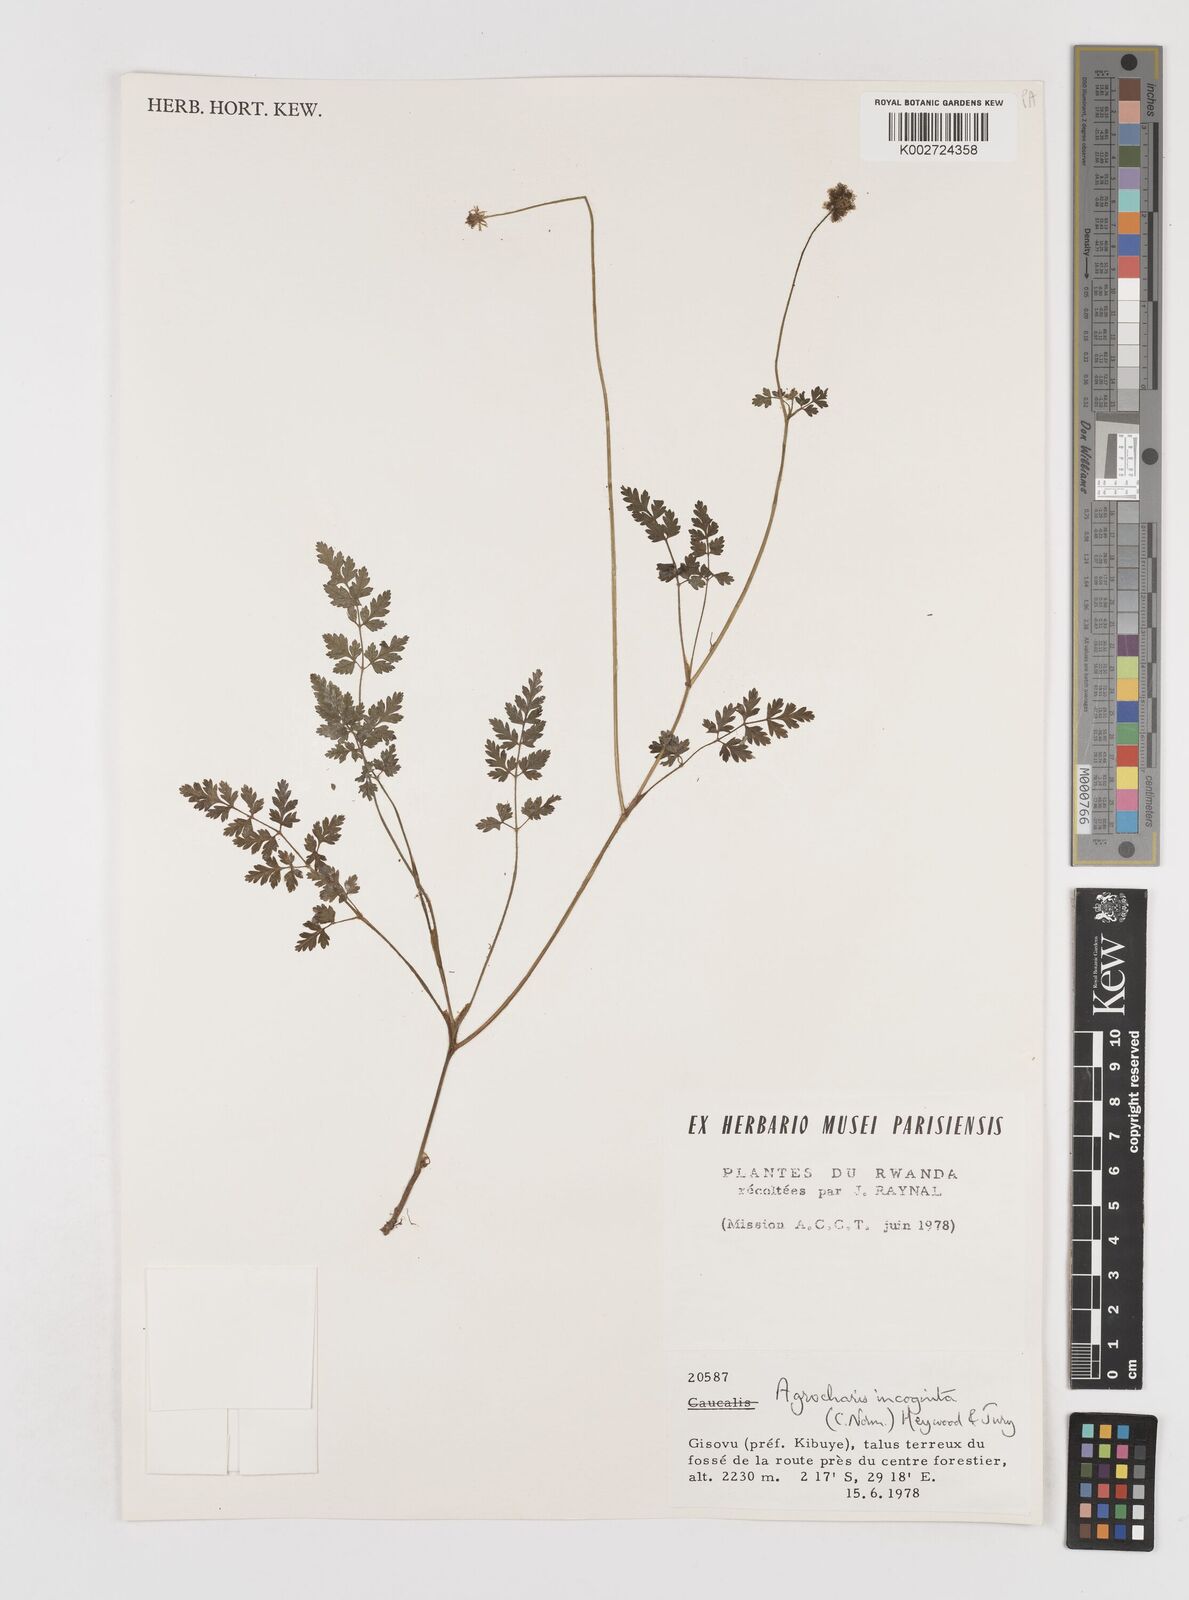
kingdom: Plantae
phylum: Tracheophyta
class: Magnoliopsida
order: Apiales
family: Apiaceae
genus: Daucus
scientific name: Daucus incognitus
